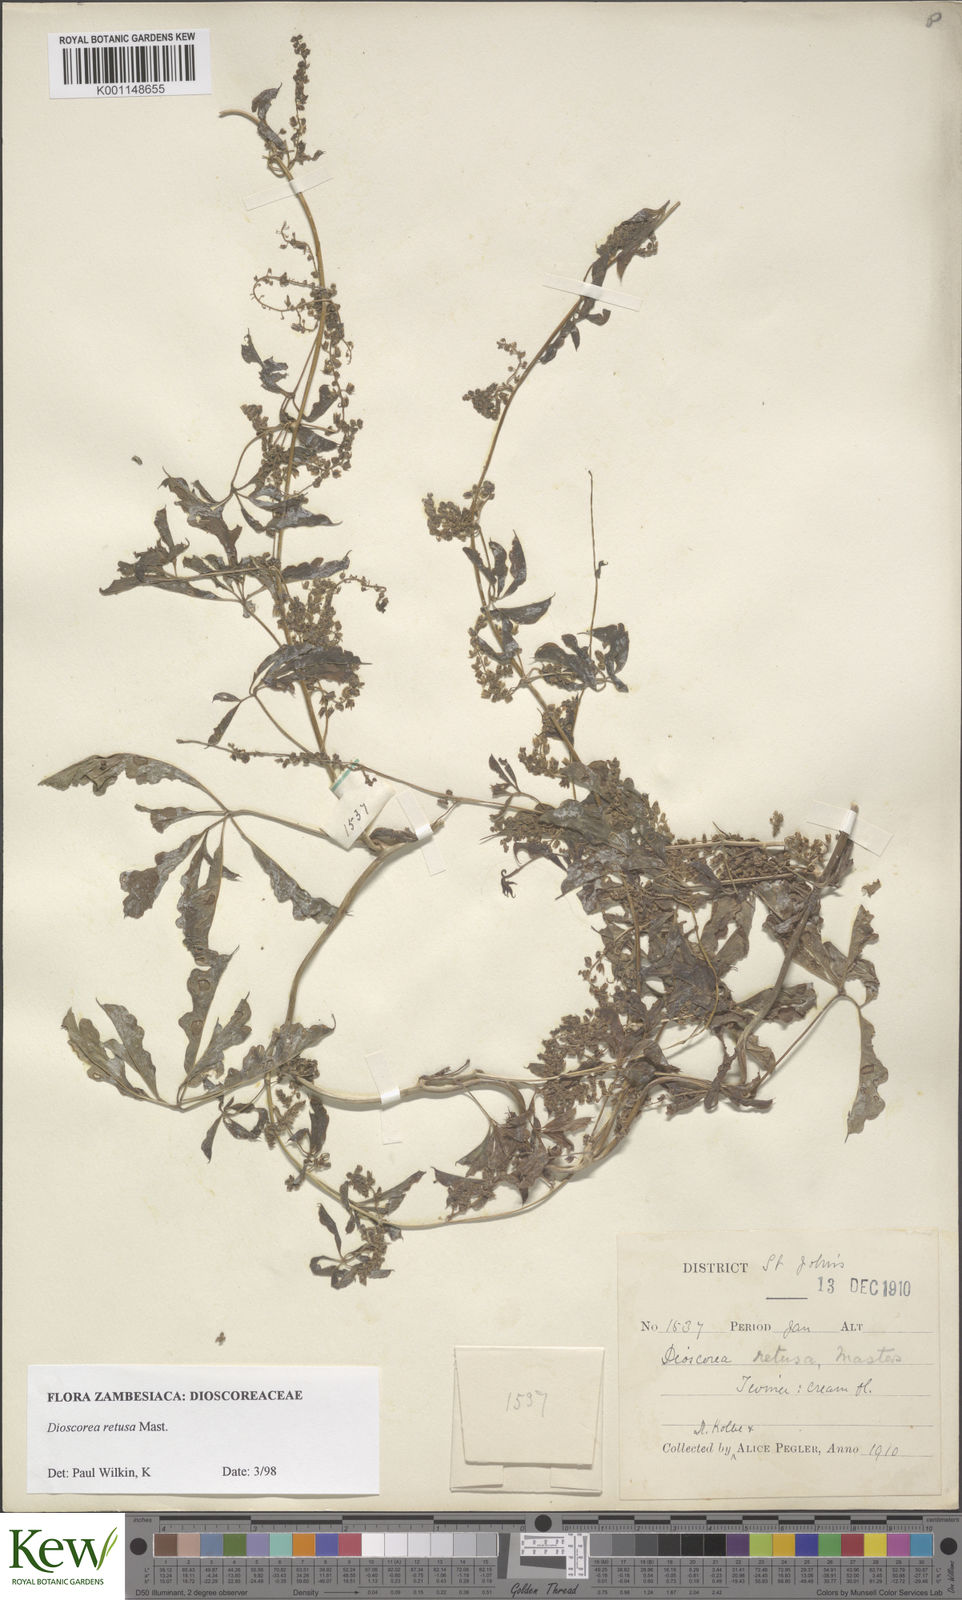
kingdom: Plantae
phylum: Tracheophyta
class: Liliopsida
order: Dioscoreales
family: Dioscoreaceae
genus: Dioscorea
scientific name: Dioscorea retusa
